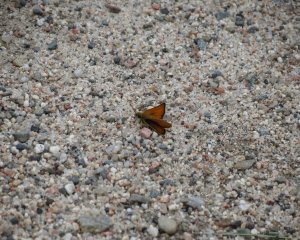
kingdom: Animalia
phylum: Arthropoda
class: Insecta
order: Lepidoptera
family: Hesperiidae
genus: Thymelicus
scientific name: Thymelicus lineola
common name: European Skipper
